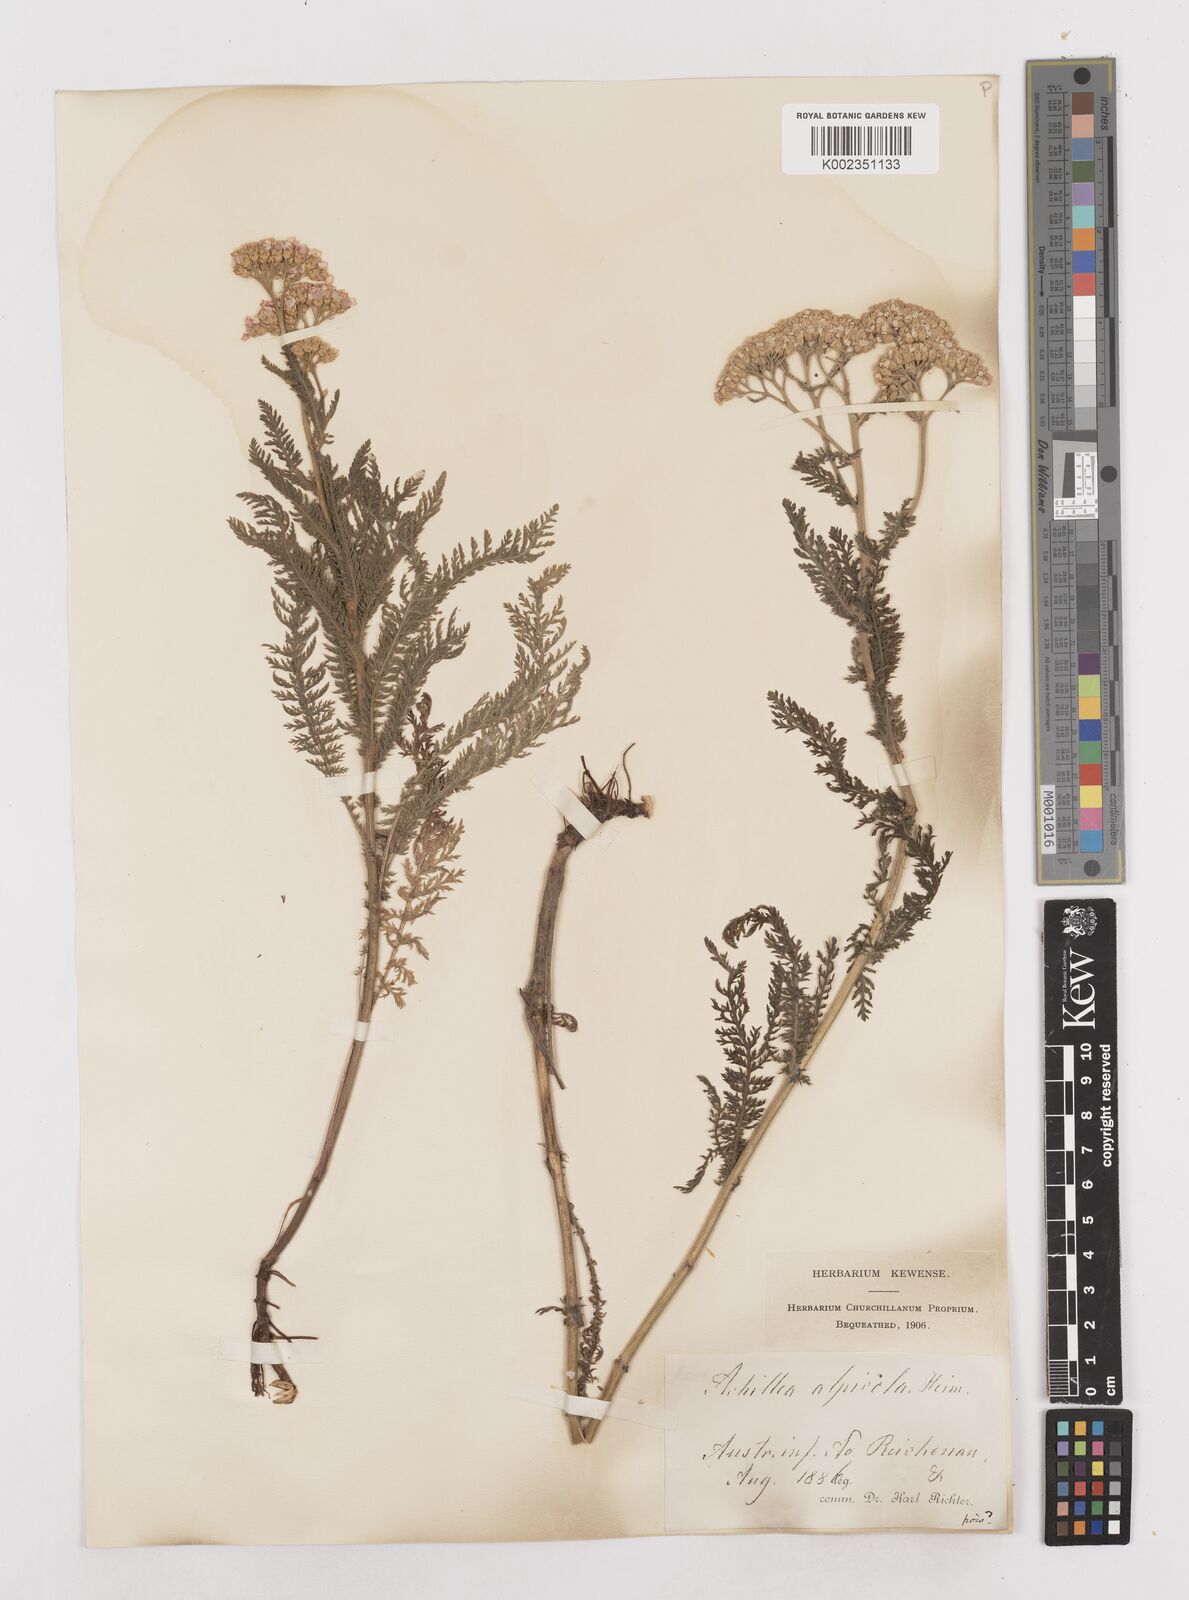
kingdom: Plantae
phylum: Tracheophyta
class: Magnoliopsida
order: Asterales
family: Asteraceae
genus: Achillea
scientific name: Achillea millefolium
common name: Yarrow
